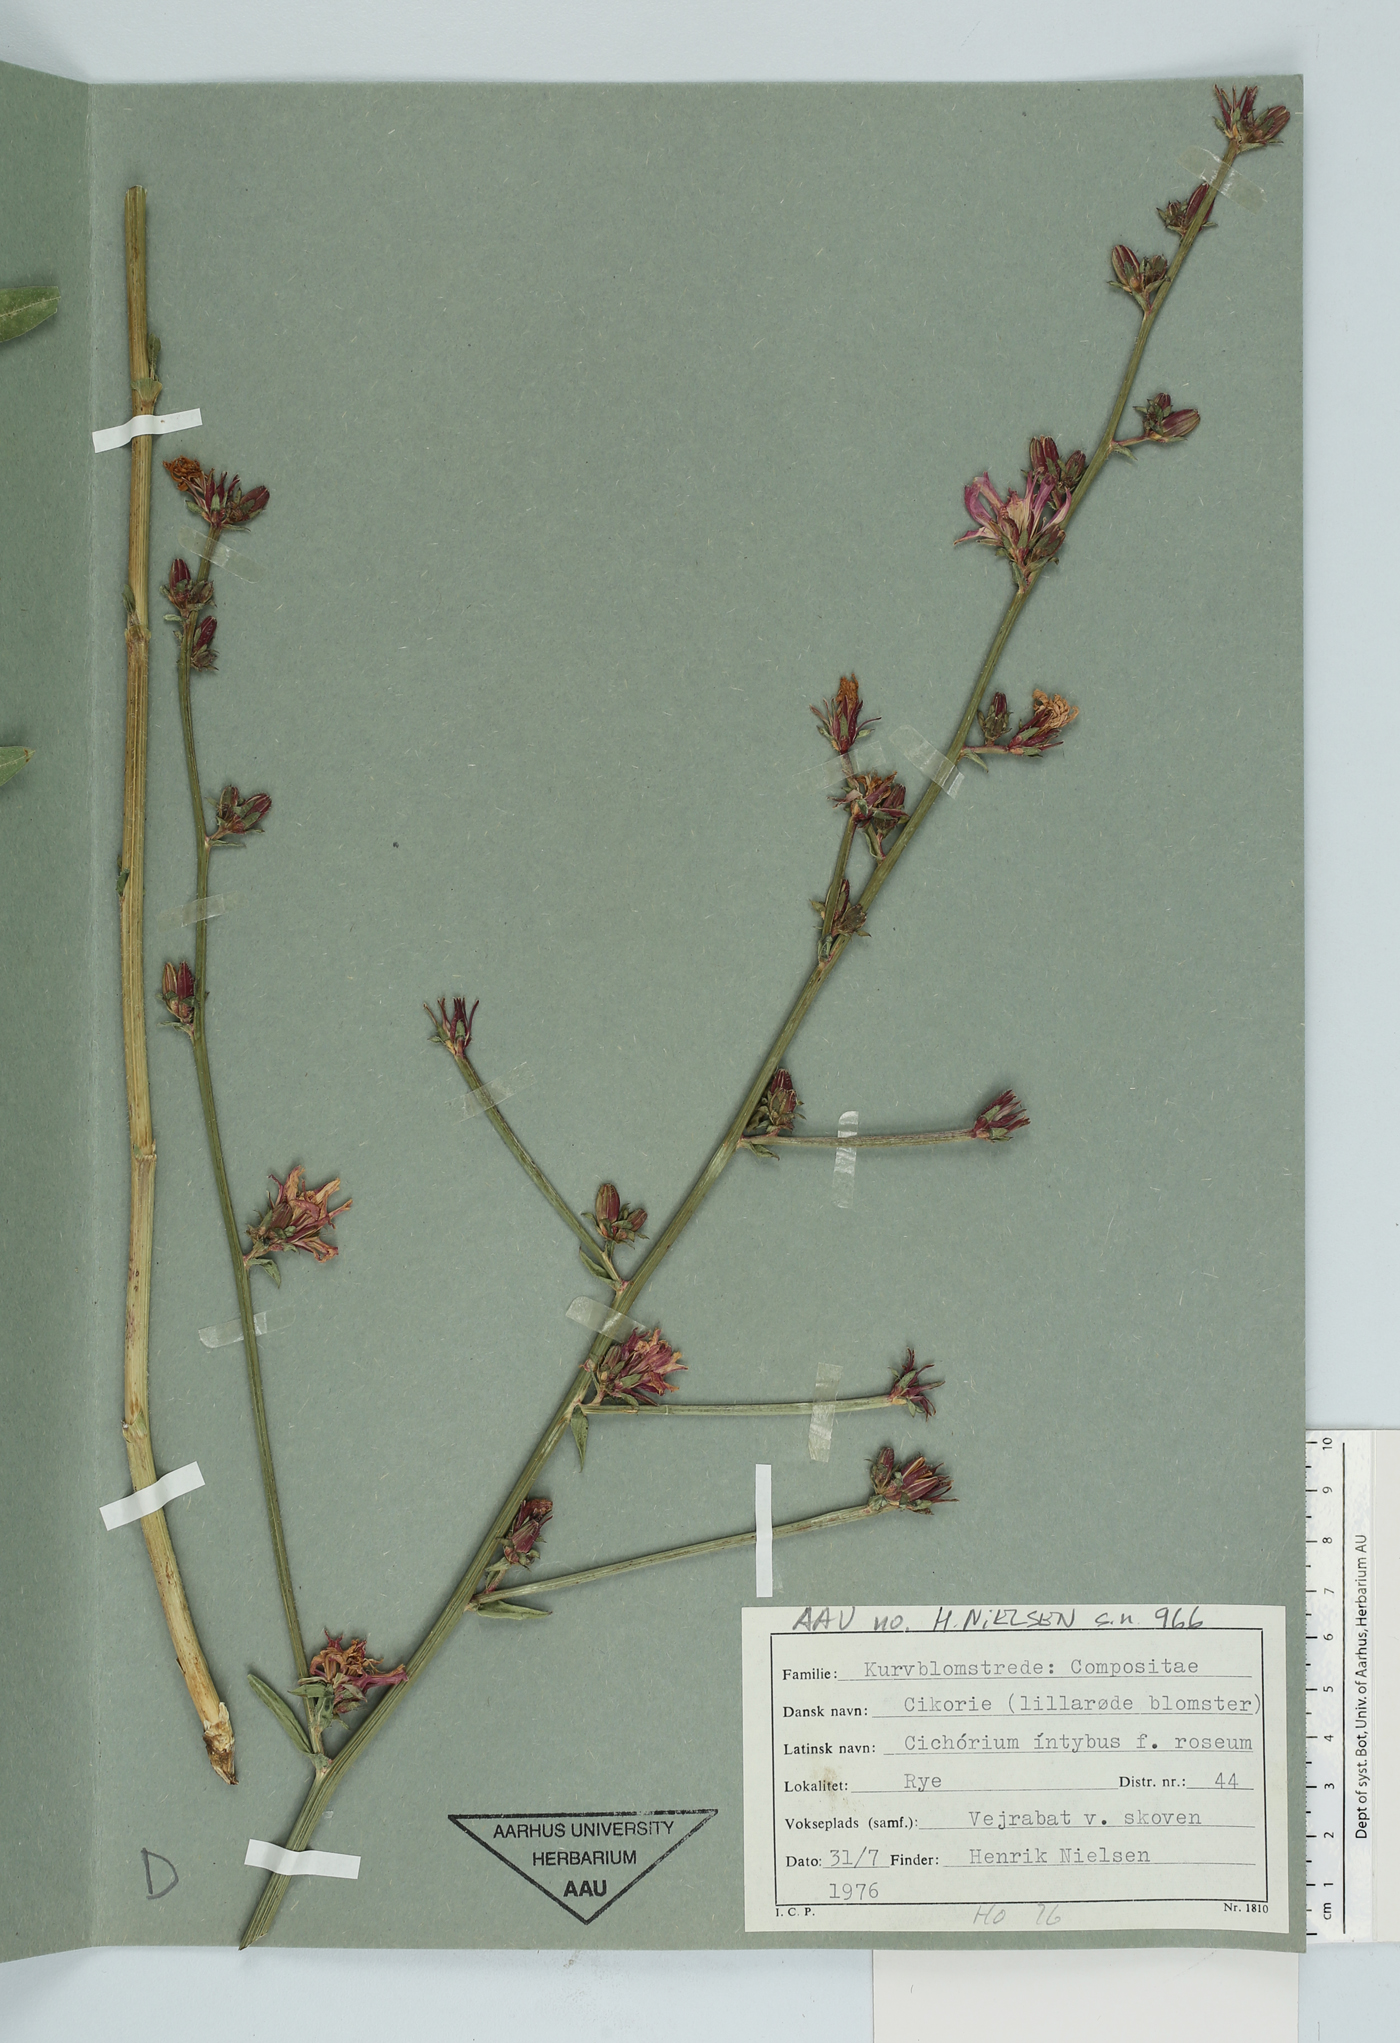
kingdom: Plantae
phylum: Tracheophyta
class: Magnoliopsida
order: Asterales
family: Asteraceae
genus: Cichorium
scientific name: Cichorium intybus
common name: Chicory
